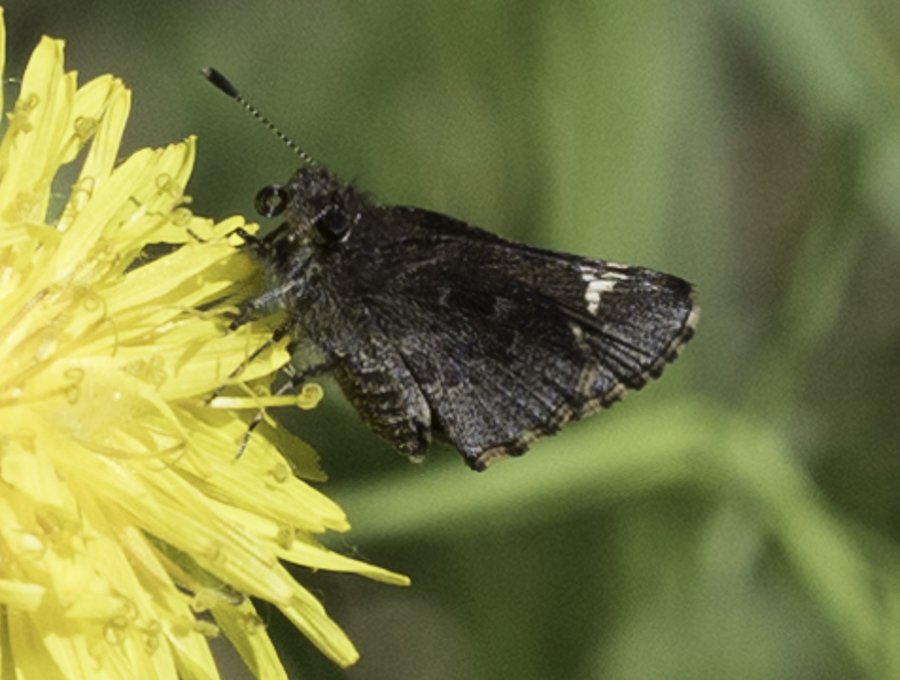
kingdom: Animalia
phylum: Arthropoda
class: Insecta
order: Lepidoptera
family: Hesperiidae
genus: Mastor
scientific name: Mastor vialis
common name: Common Roadside-Skipper
